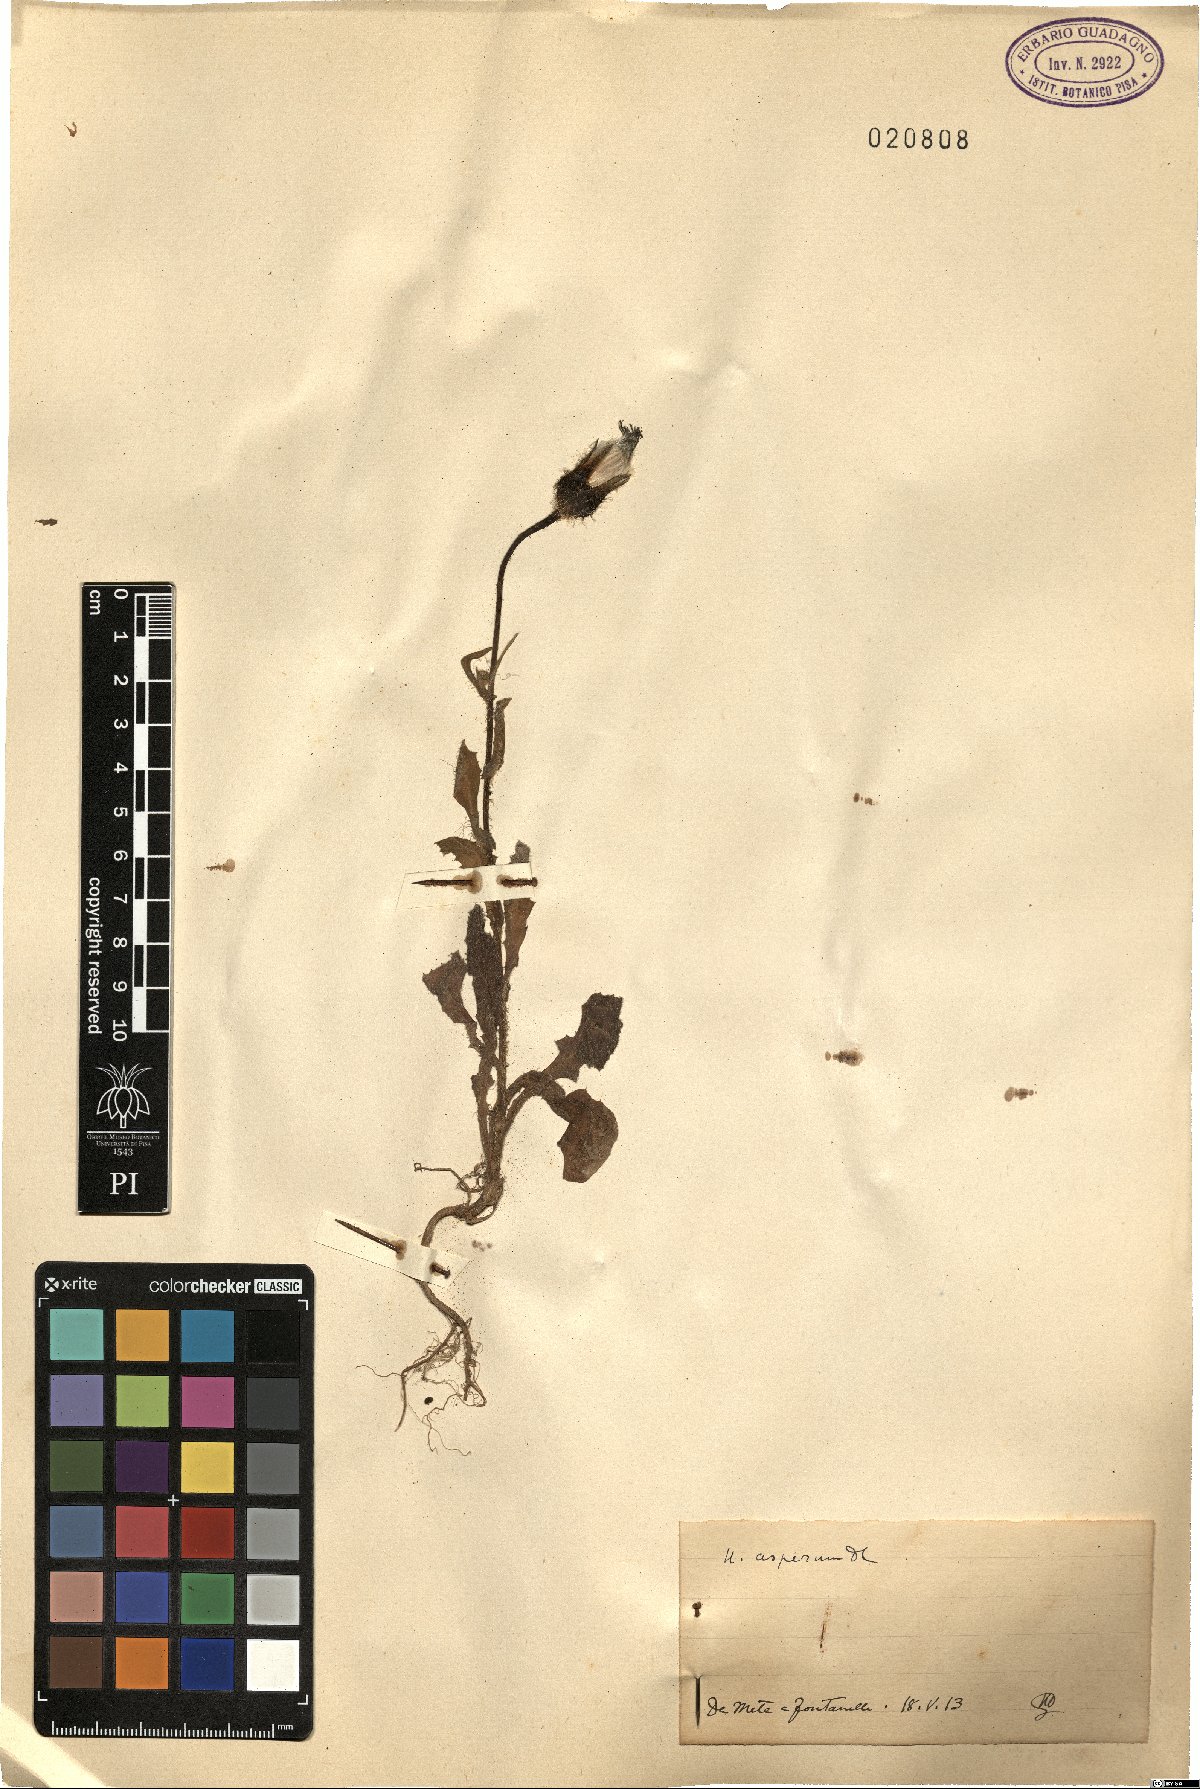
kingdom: Plantae
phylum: Tracheophyta
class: Magnoliopsida
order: Asterales
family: Asteraceae
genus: Urospermum
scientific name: Urospermum picroides
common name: False hawkbit
